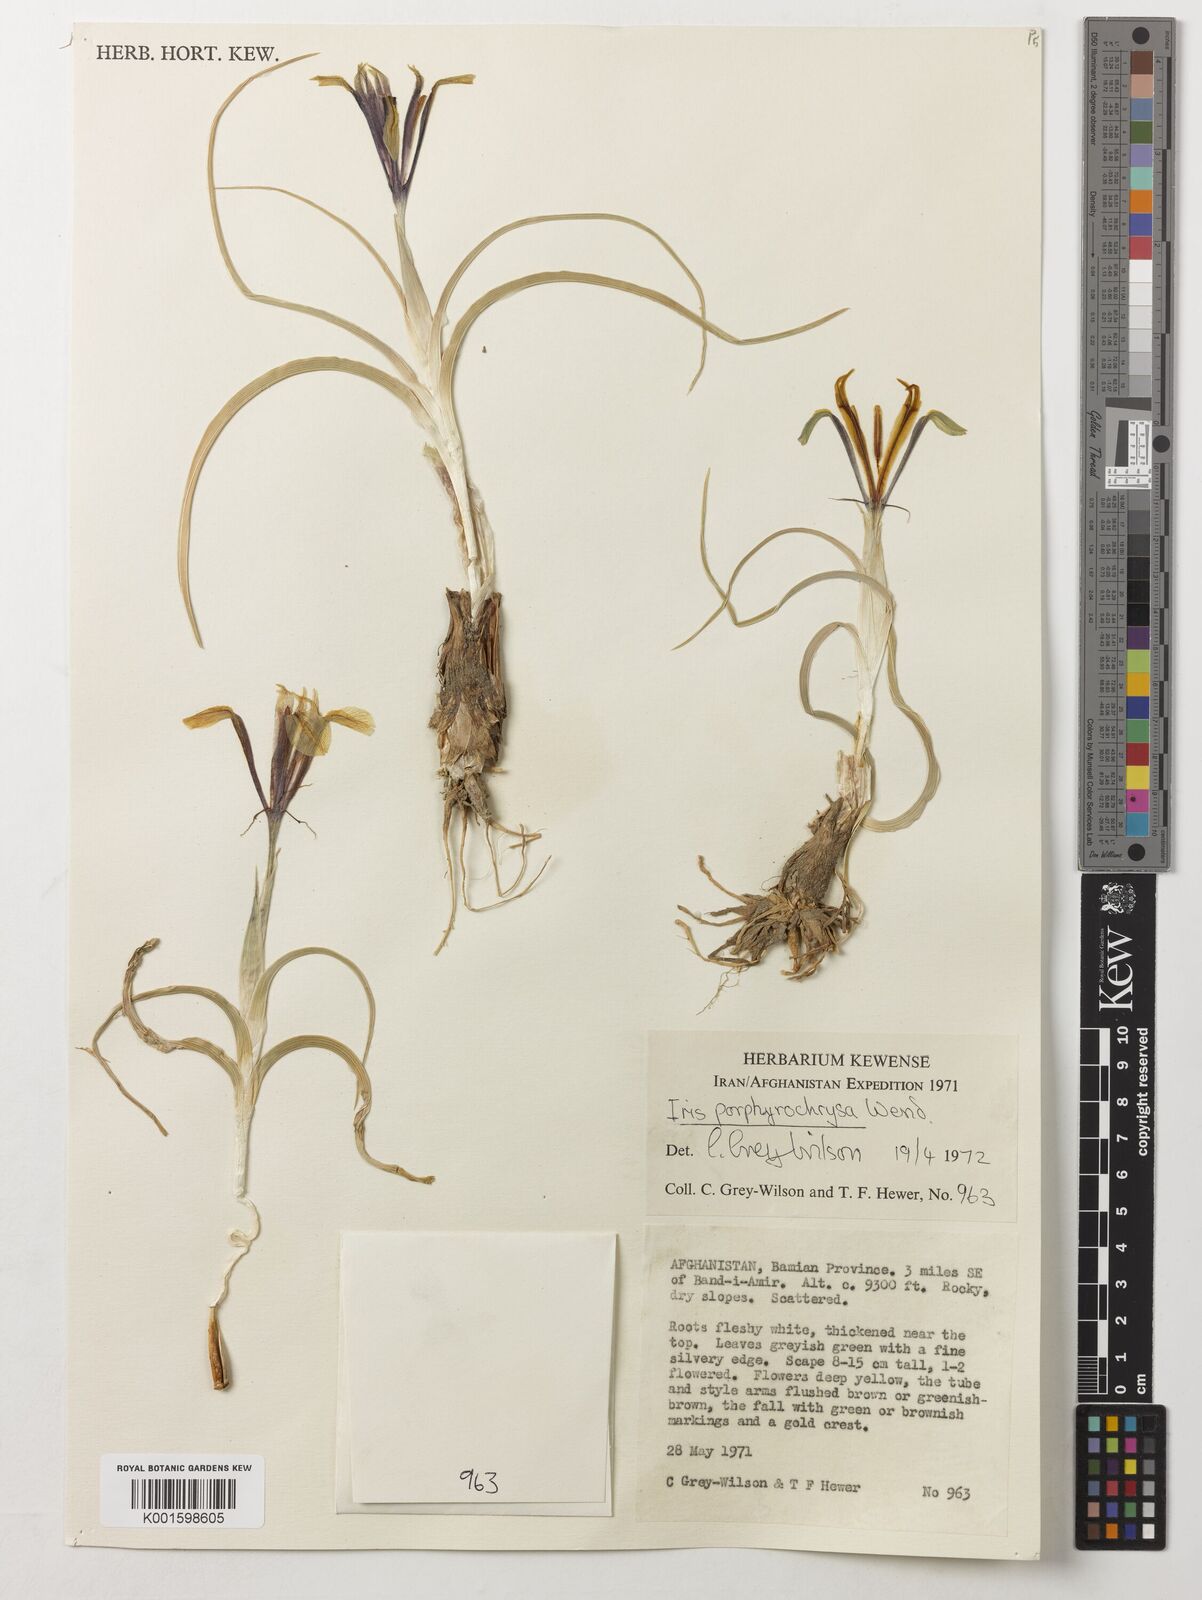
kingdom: Plantae
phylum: Tracheophyta
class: Liliopsida
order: Asparagales
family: Iridaceae
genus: Iris
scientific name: Iris porphyrochrysa
